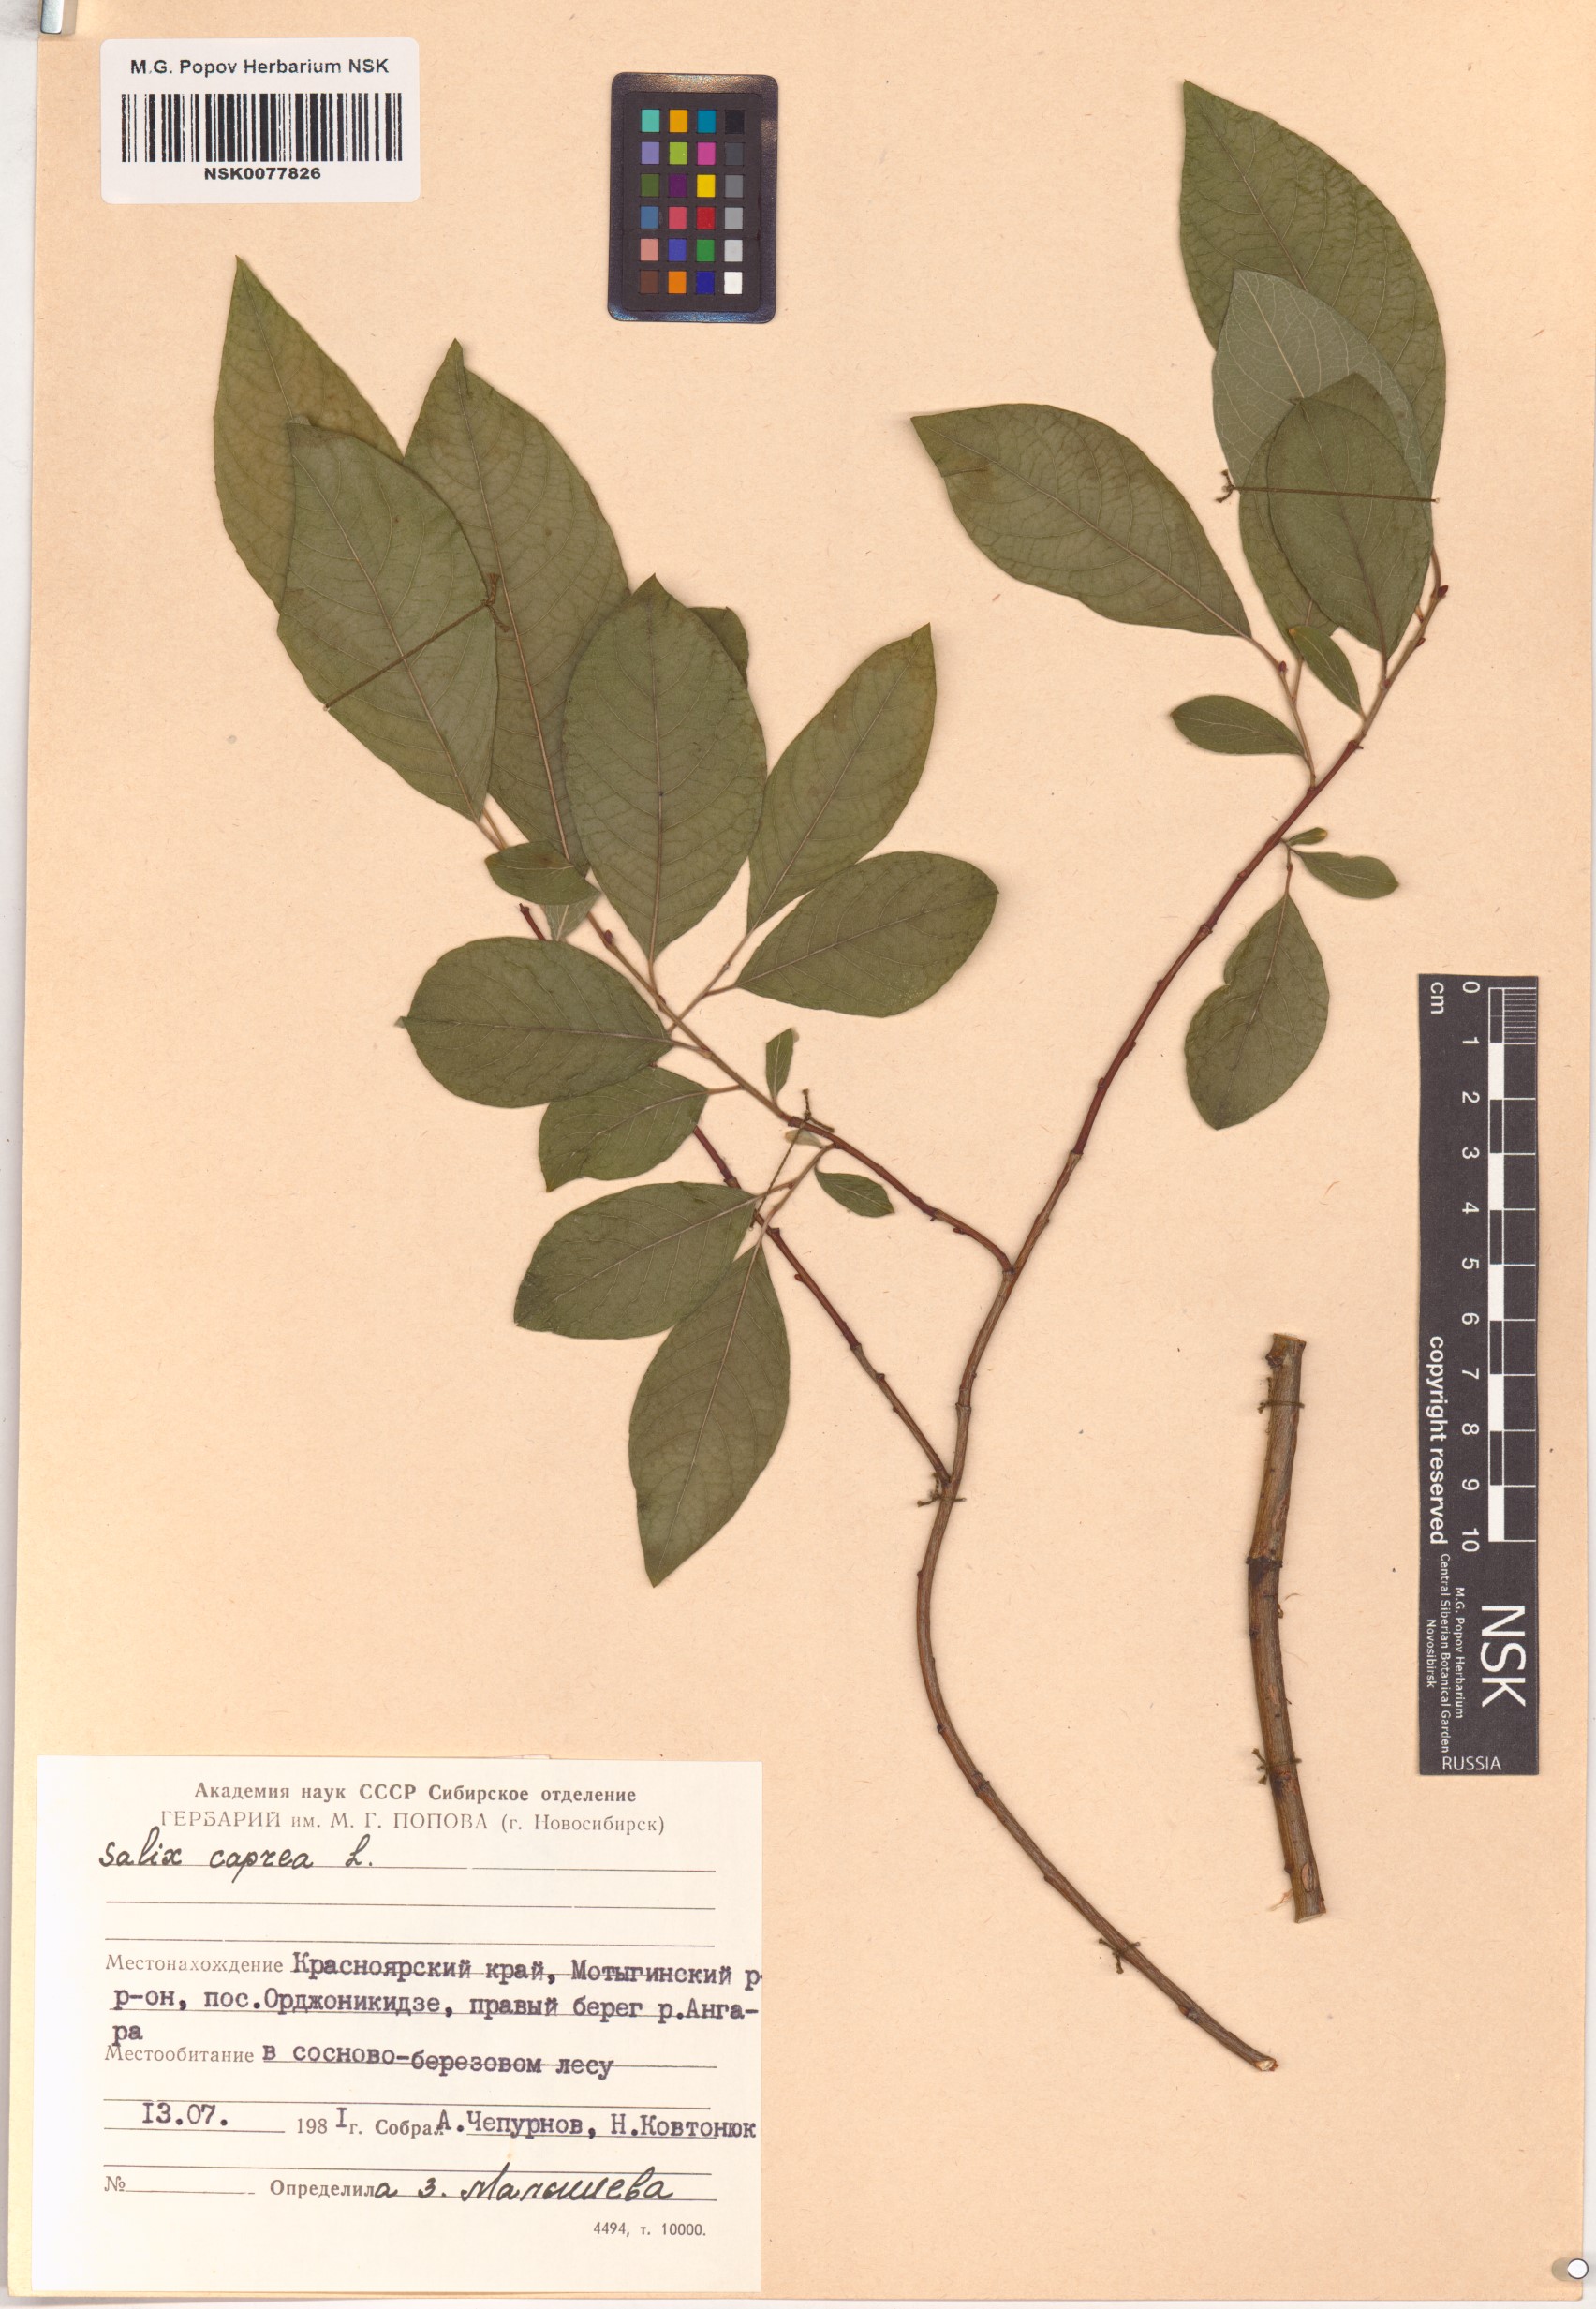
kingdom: Plantae
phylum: Tracheophyta
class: Magnoliopsida
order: Malpighiales
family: Salicaceae
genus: Salix
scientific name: Salix caprea
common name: Goat willow
